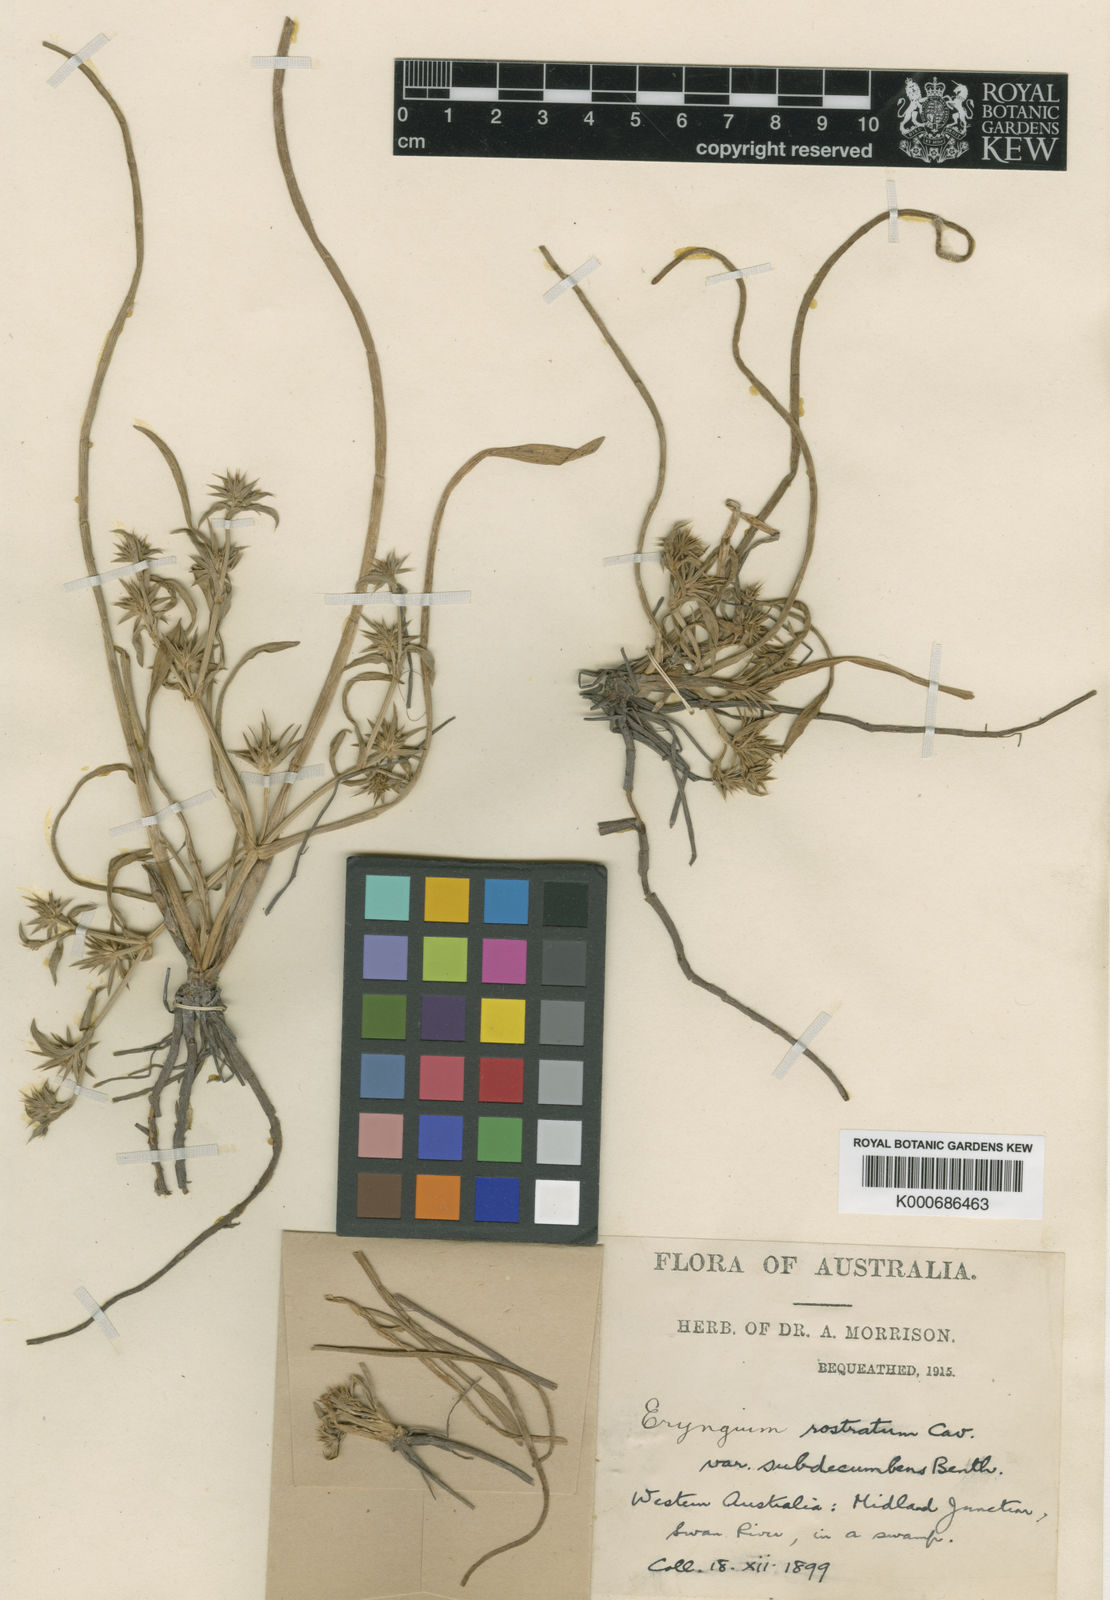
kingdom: Plantae
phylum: Tracheophyta
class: Magnoliopsida
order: Apiales
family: Apiaceae
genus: Eryngium
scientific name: Eryngium rostratum
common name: Blue eryngo
